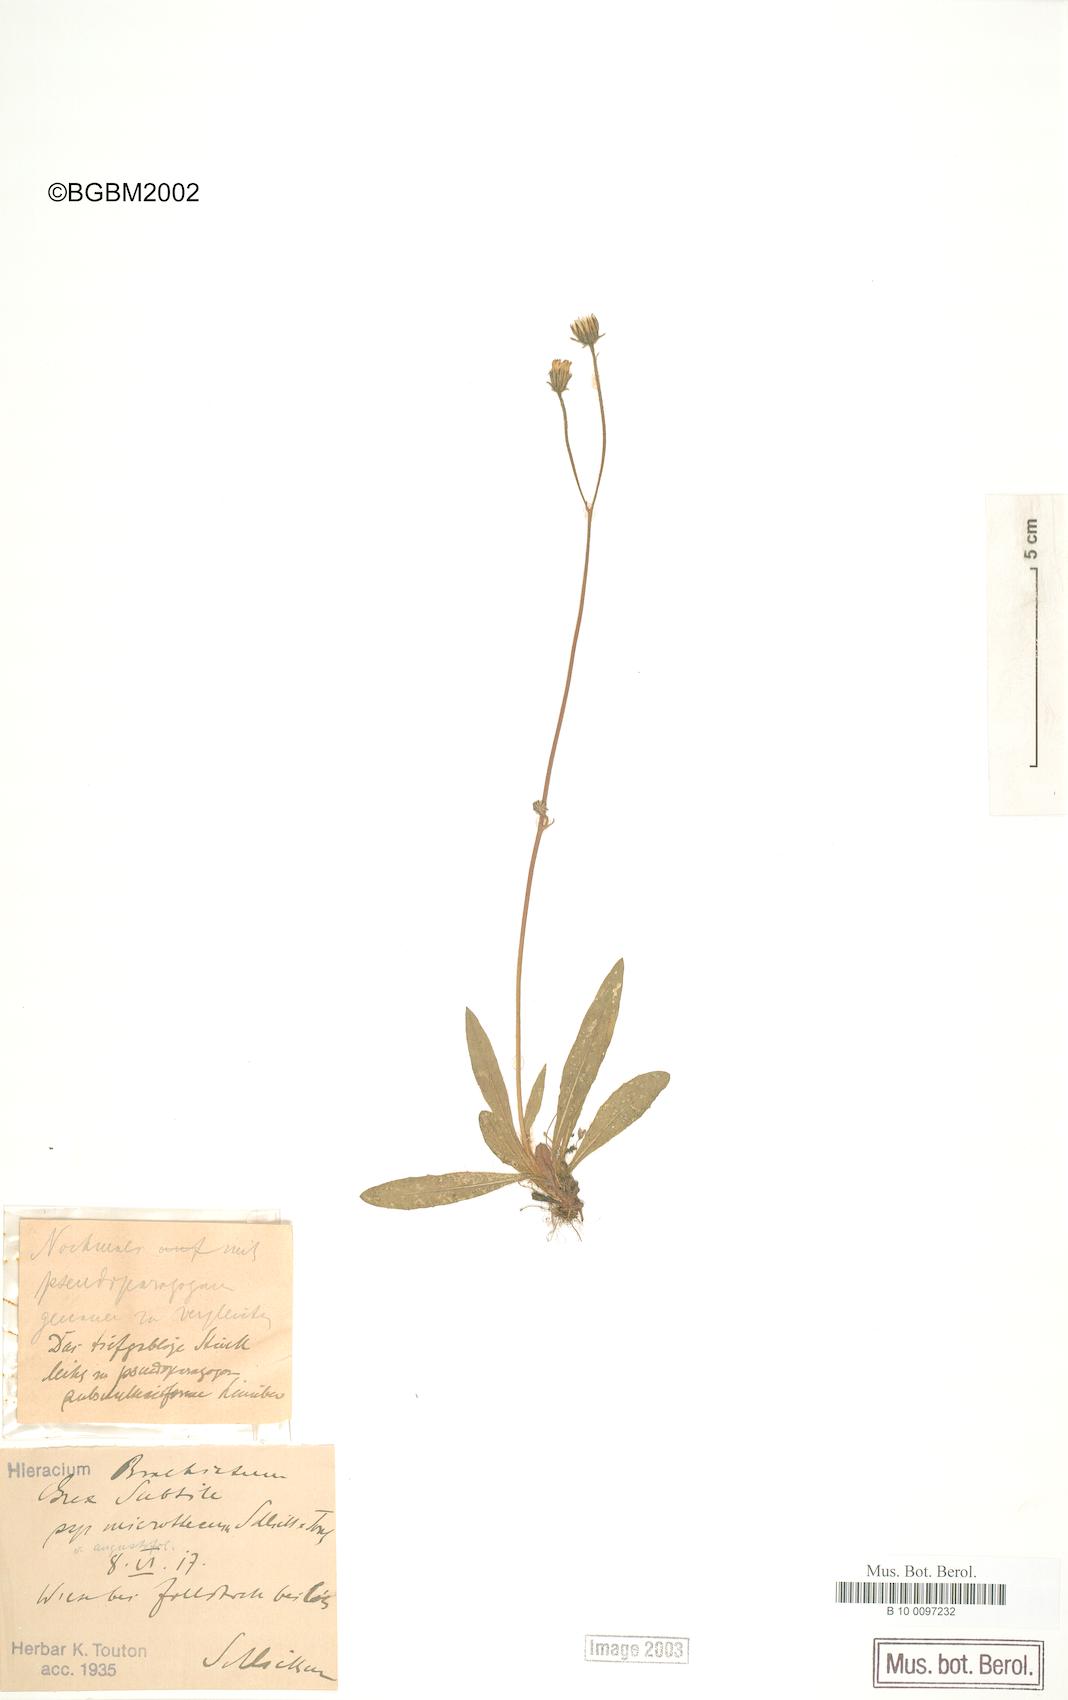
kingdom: Plantae
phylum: Tracheophyta
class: Magnoliopsida
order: Asterales
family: Asteraceae
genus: Pilosella
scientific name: Pilosella acutifolia
